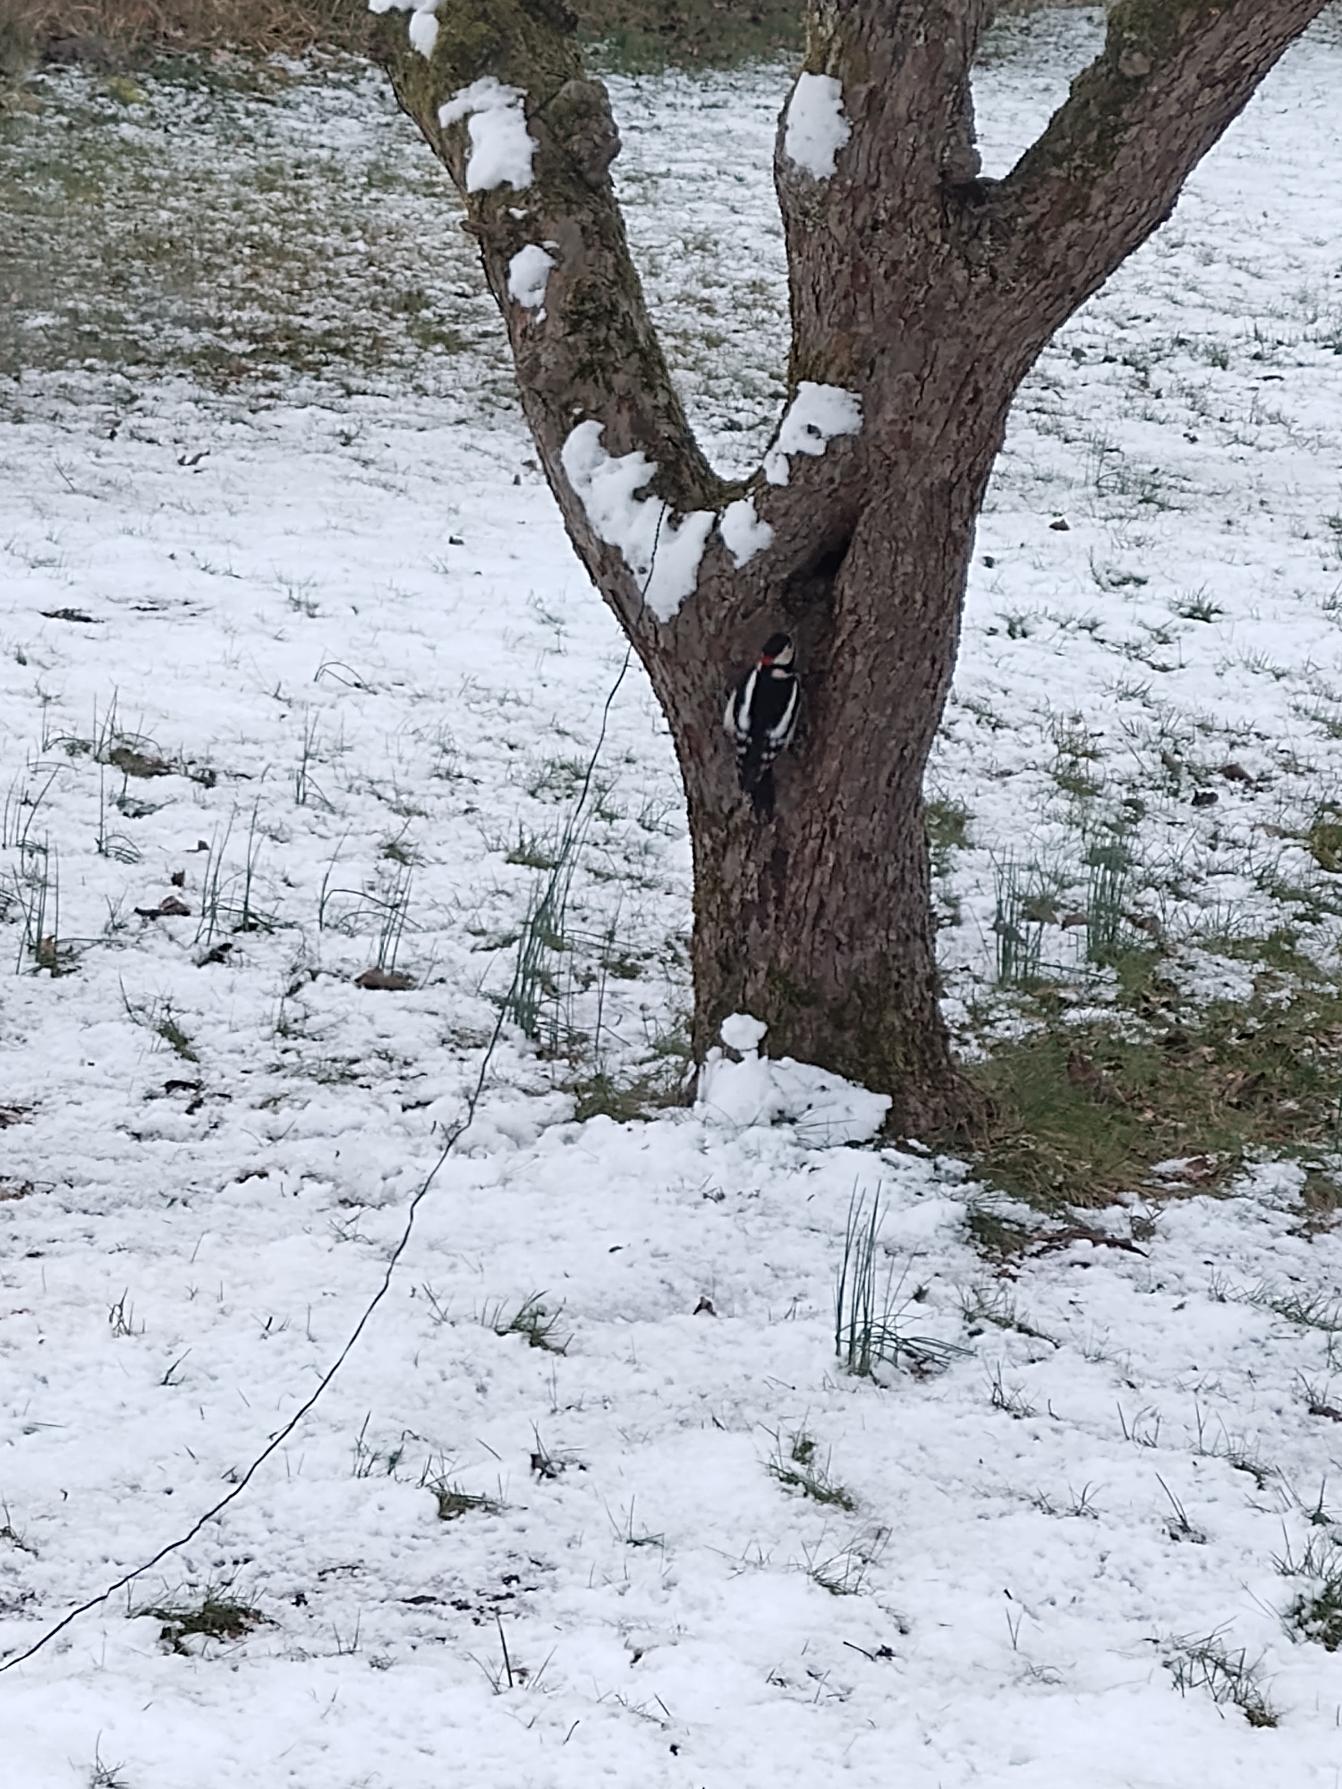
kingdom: Animalia
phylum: Chordata
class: Aves
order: Piciformes
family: Picidae
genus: Dendrocopos
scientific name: Dendrocopos major
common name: Stor flagspætte
